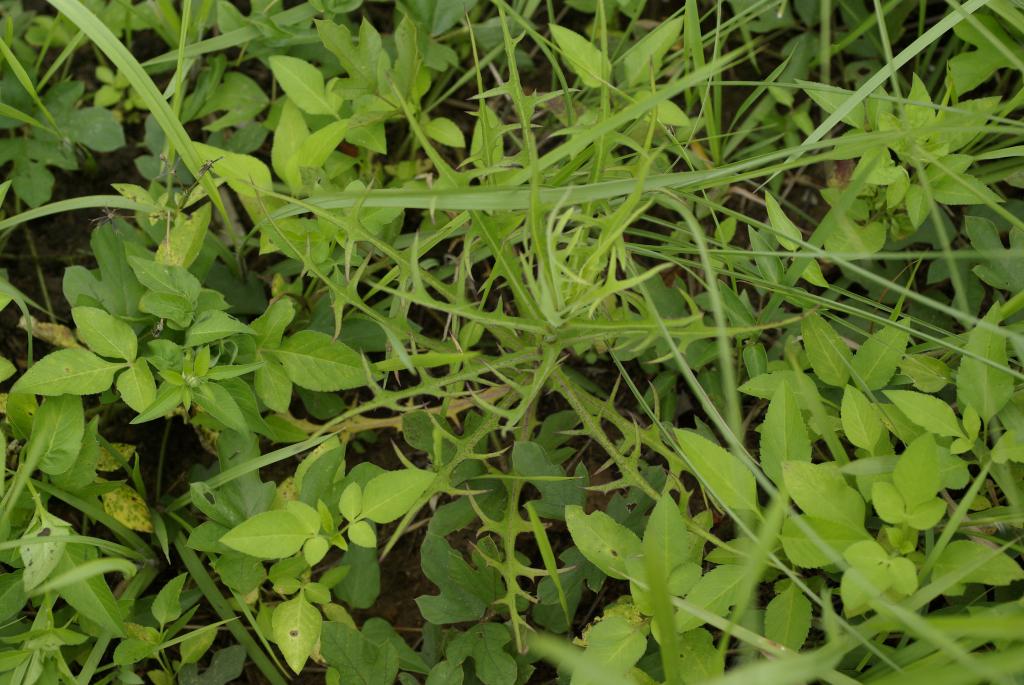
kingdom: Plantae
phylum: Tracheophyta
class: Magnoliopsida
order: Asterales
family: Asteraceae
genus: Lactuca
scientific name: Lactuca indica
